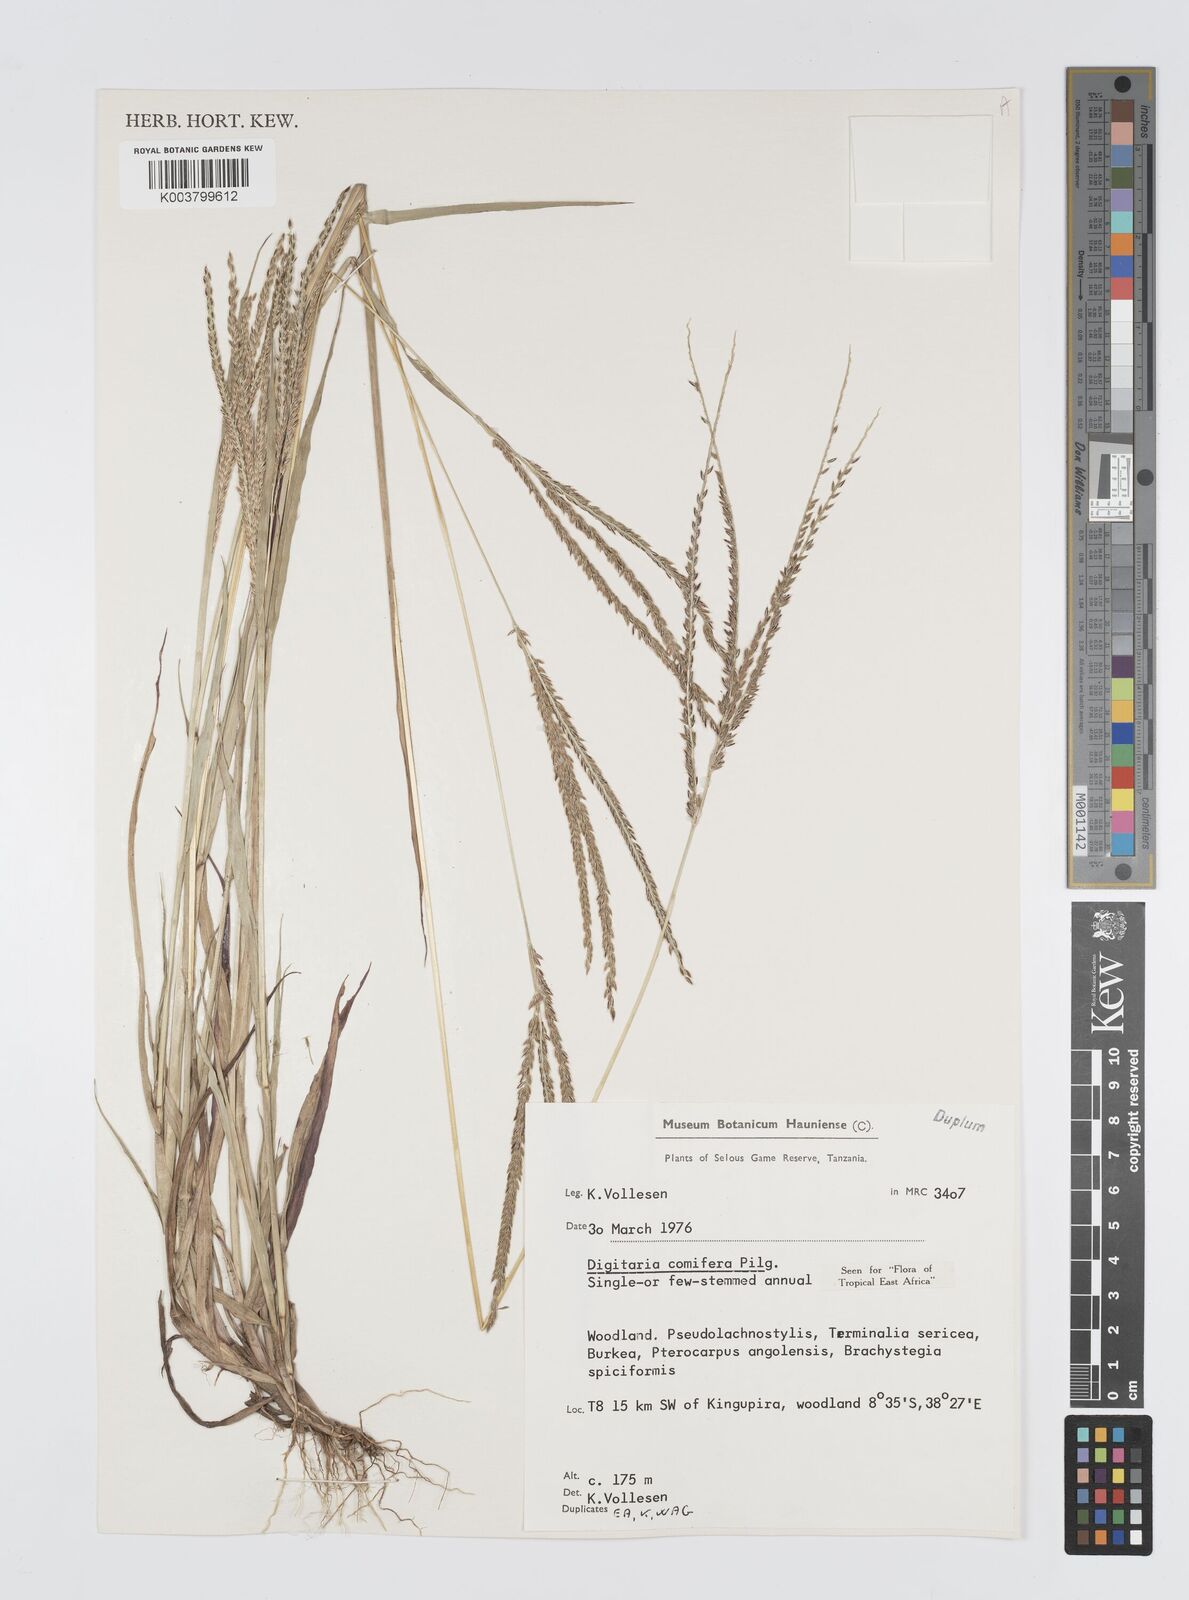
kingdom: Plantae
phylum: Tracheophyta
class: Liliopsida
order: Poales
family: Poaceae
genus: Digitaria
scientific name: Digitaria comifera
